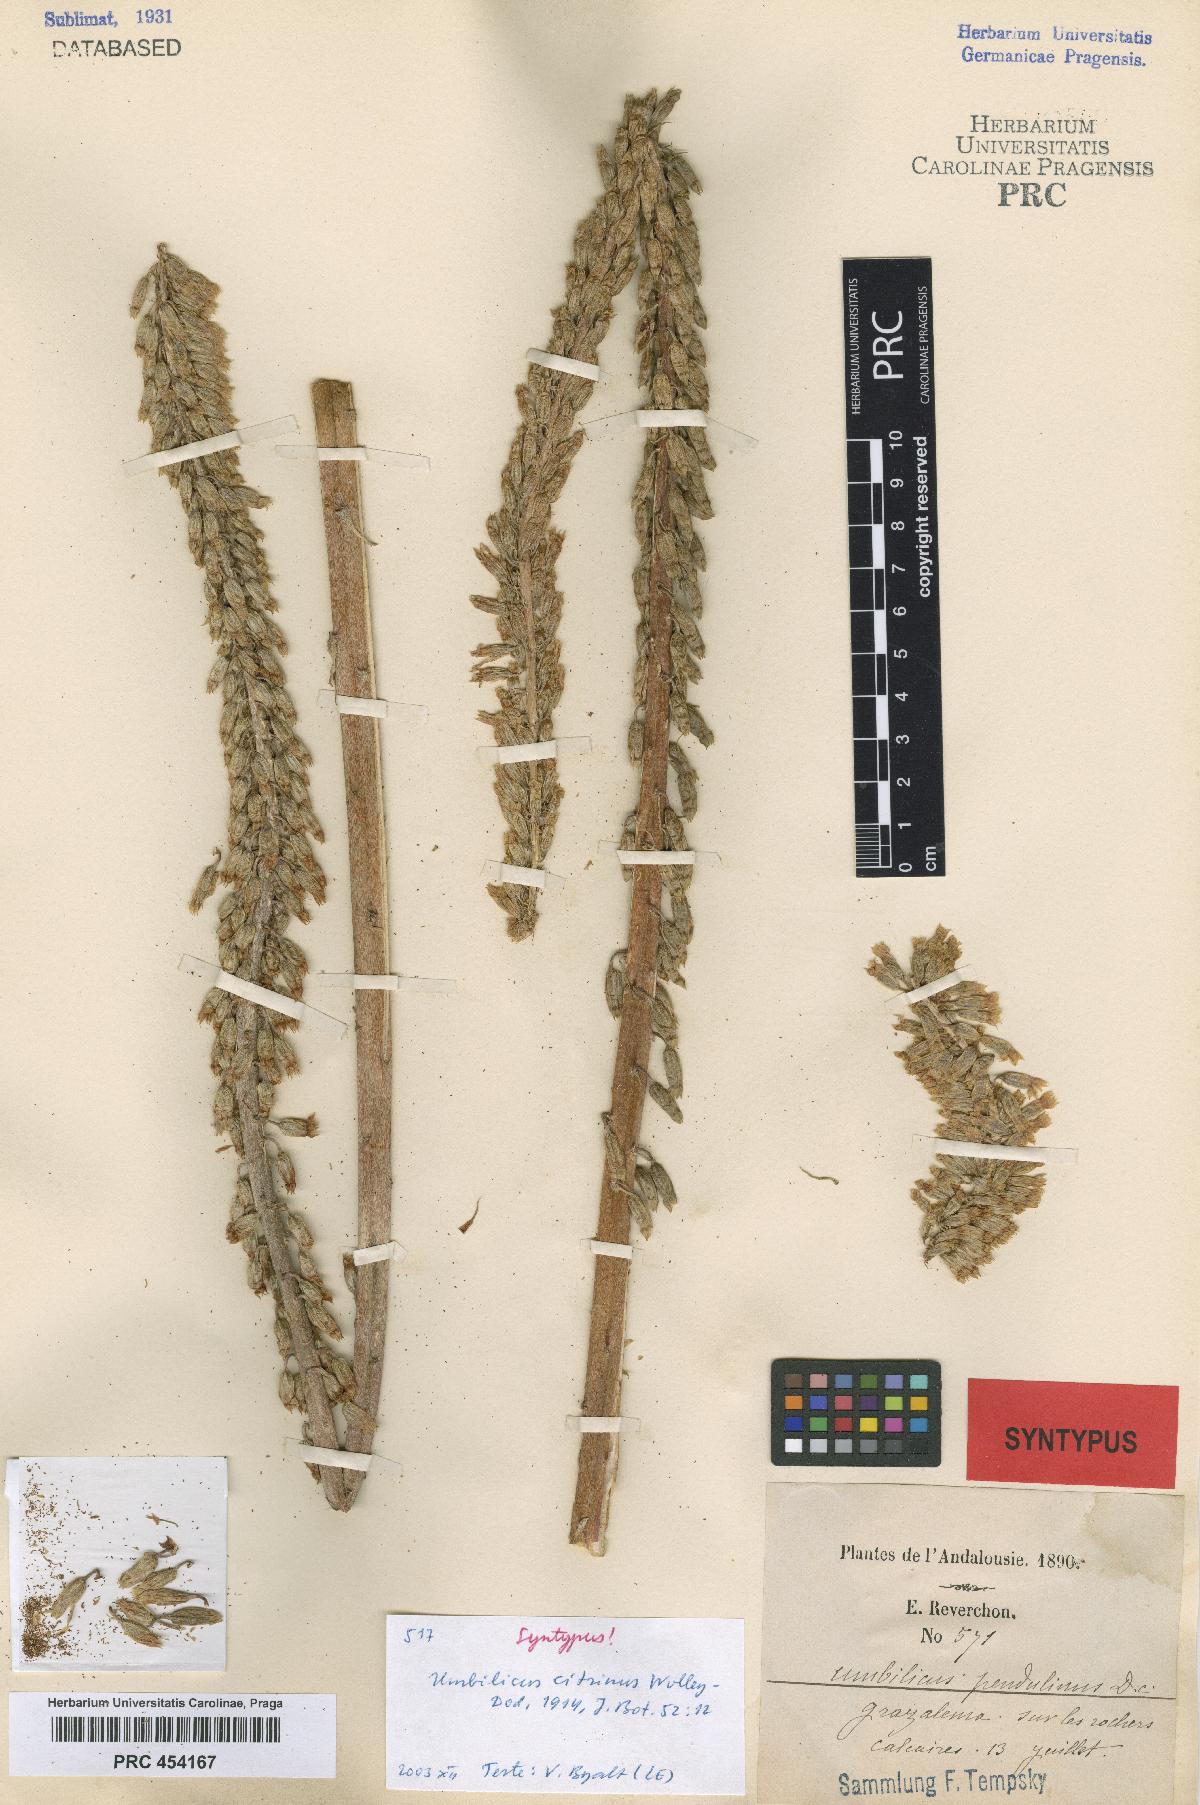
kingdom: Plantae
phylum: Tracheophyta
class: Magnoliopsida
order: Saxifragales
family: Crassulaceae
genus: Umbilicus
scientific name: Umbilicus heylandianus
